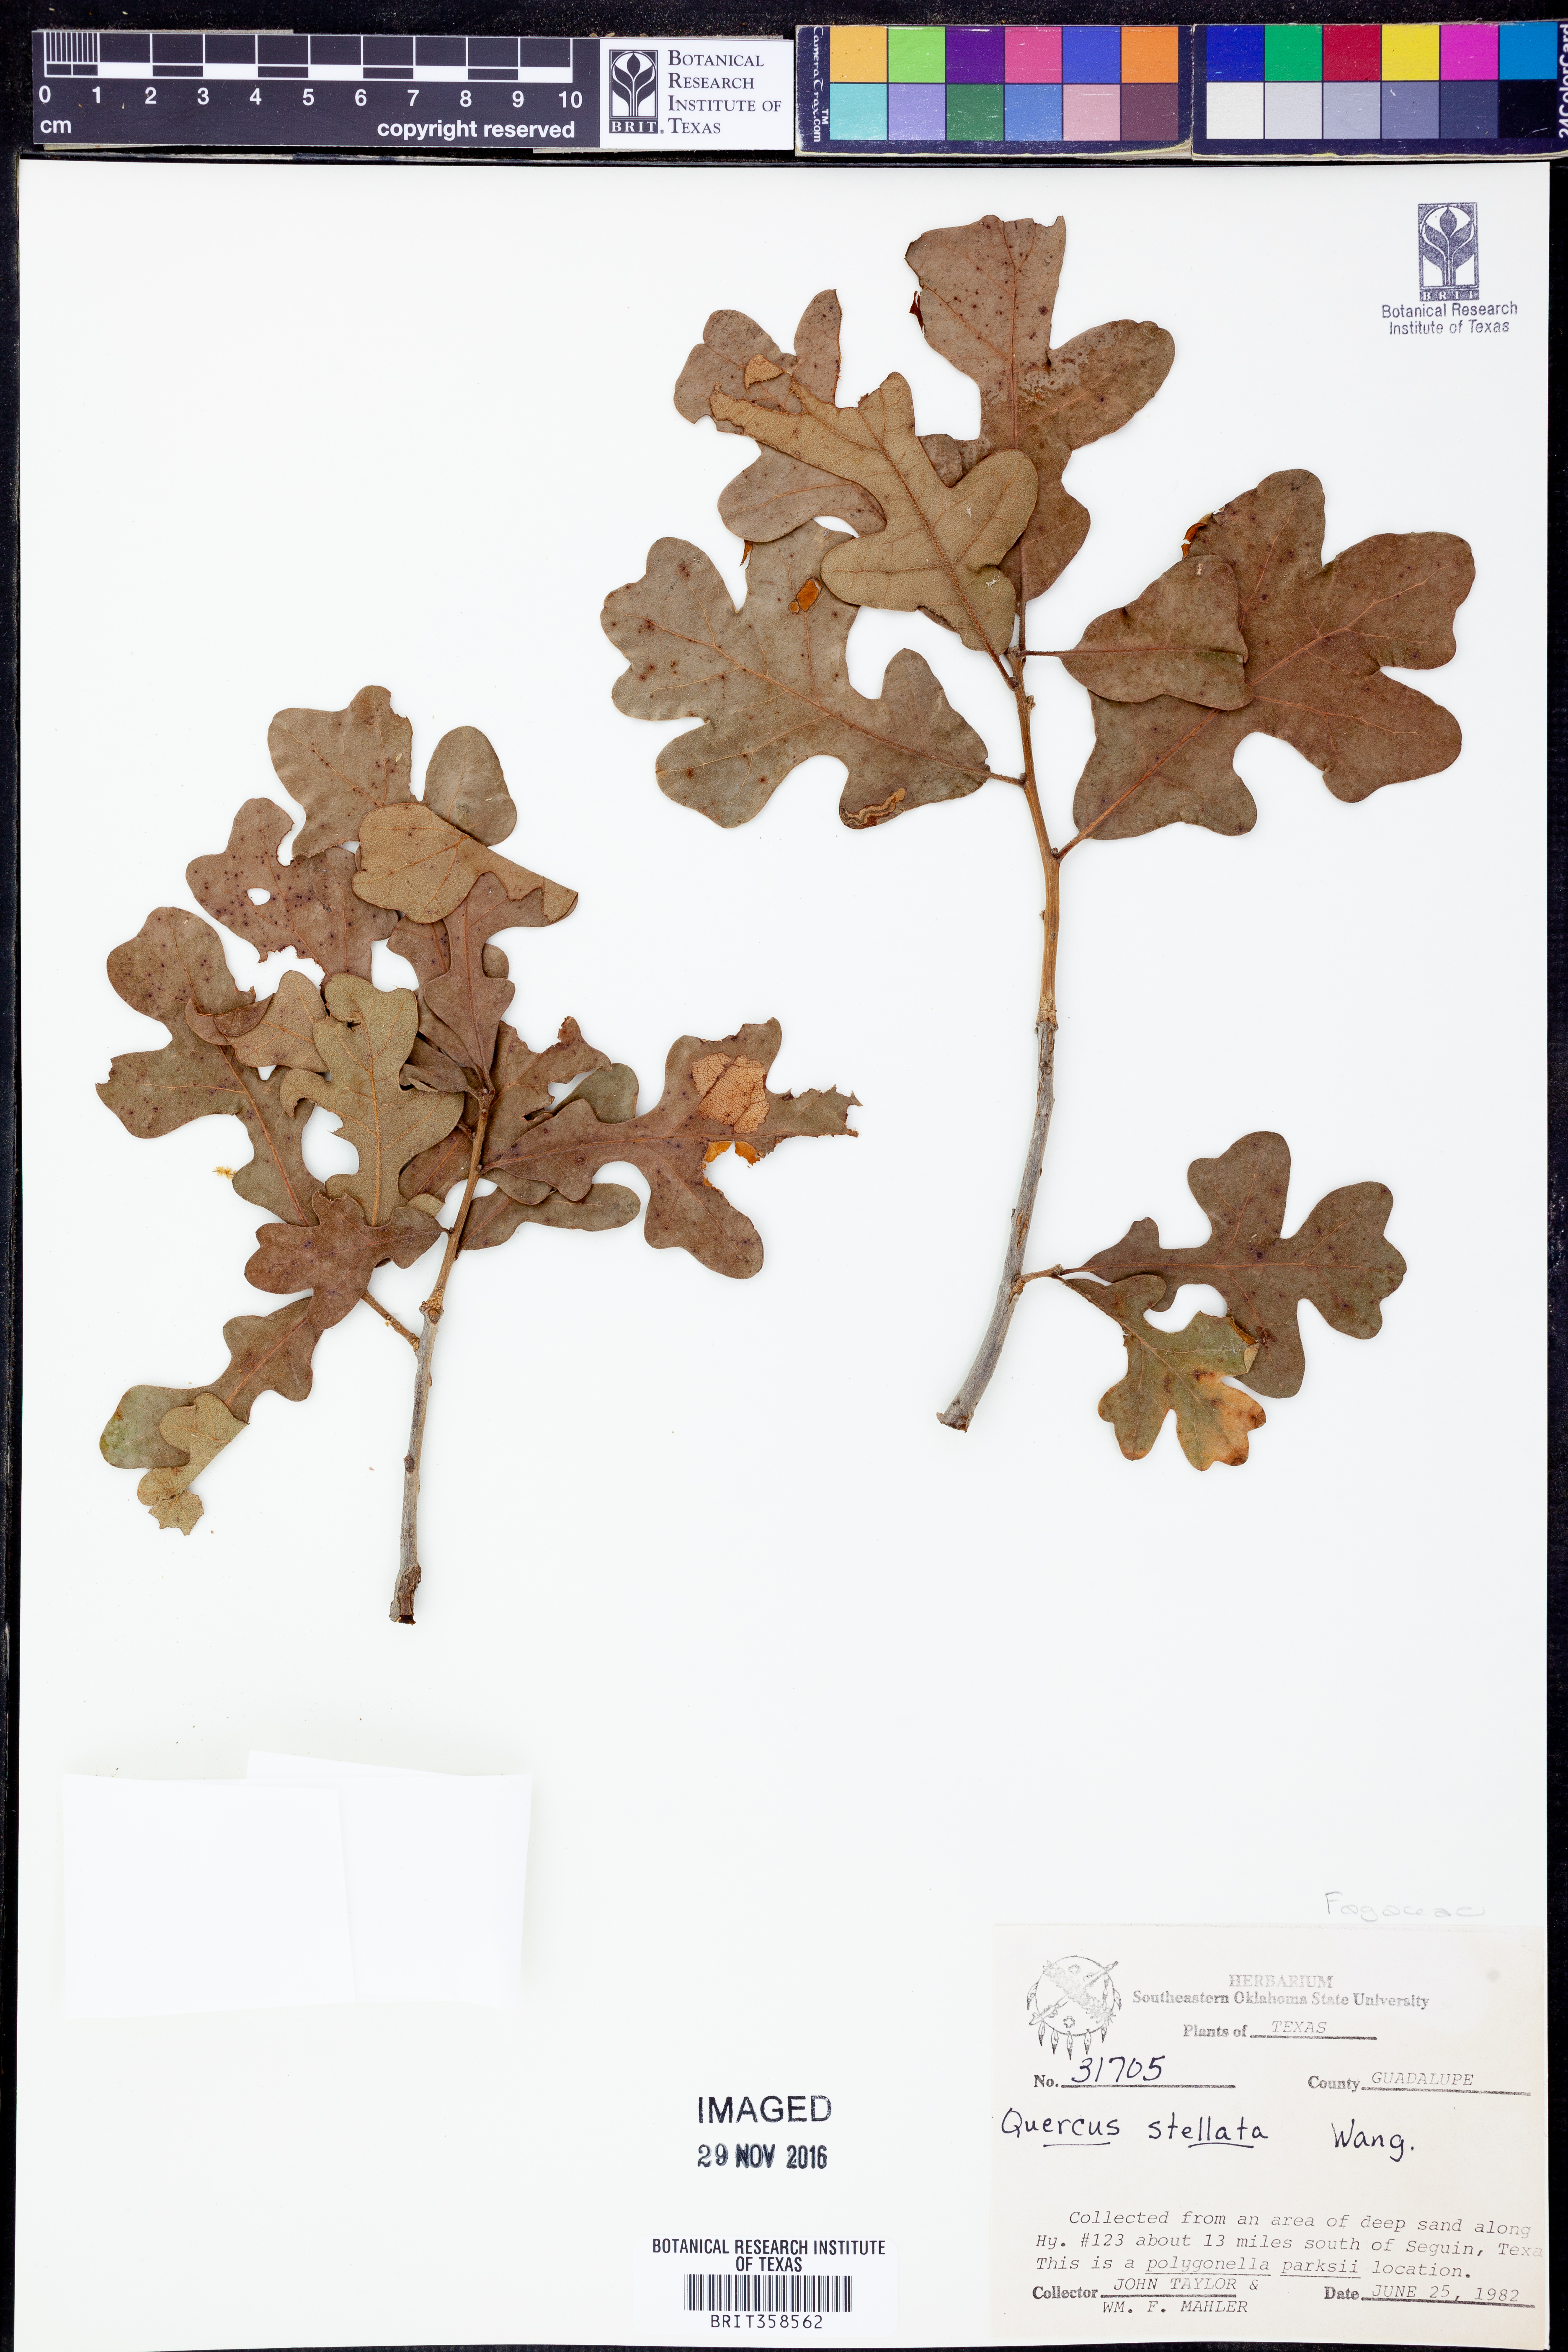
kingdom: Plantae
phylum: Tracheophyta
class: Magnoliopsida
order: Fagales
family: Fagaceae
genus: Quercus
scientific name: Quercus stellata
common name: Post oak
